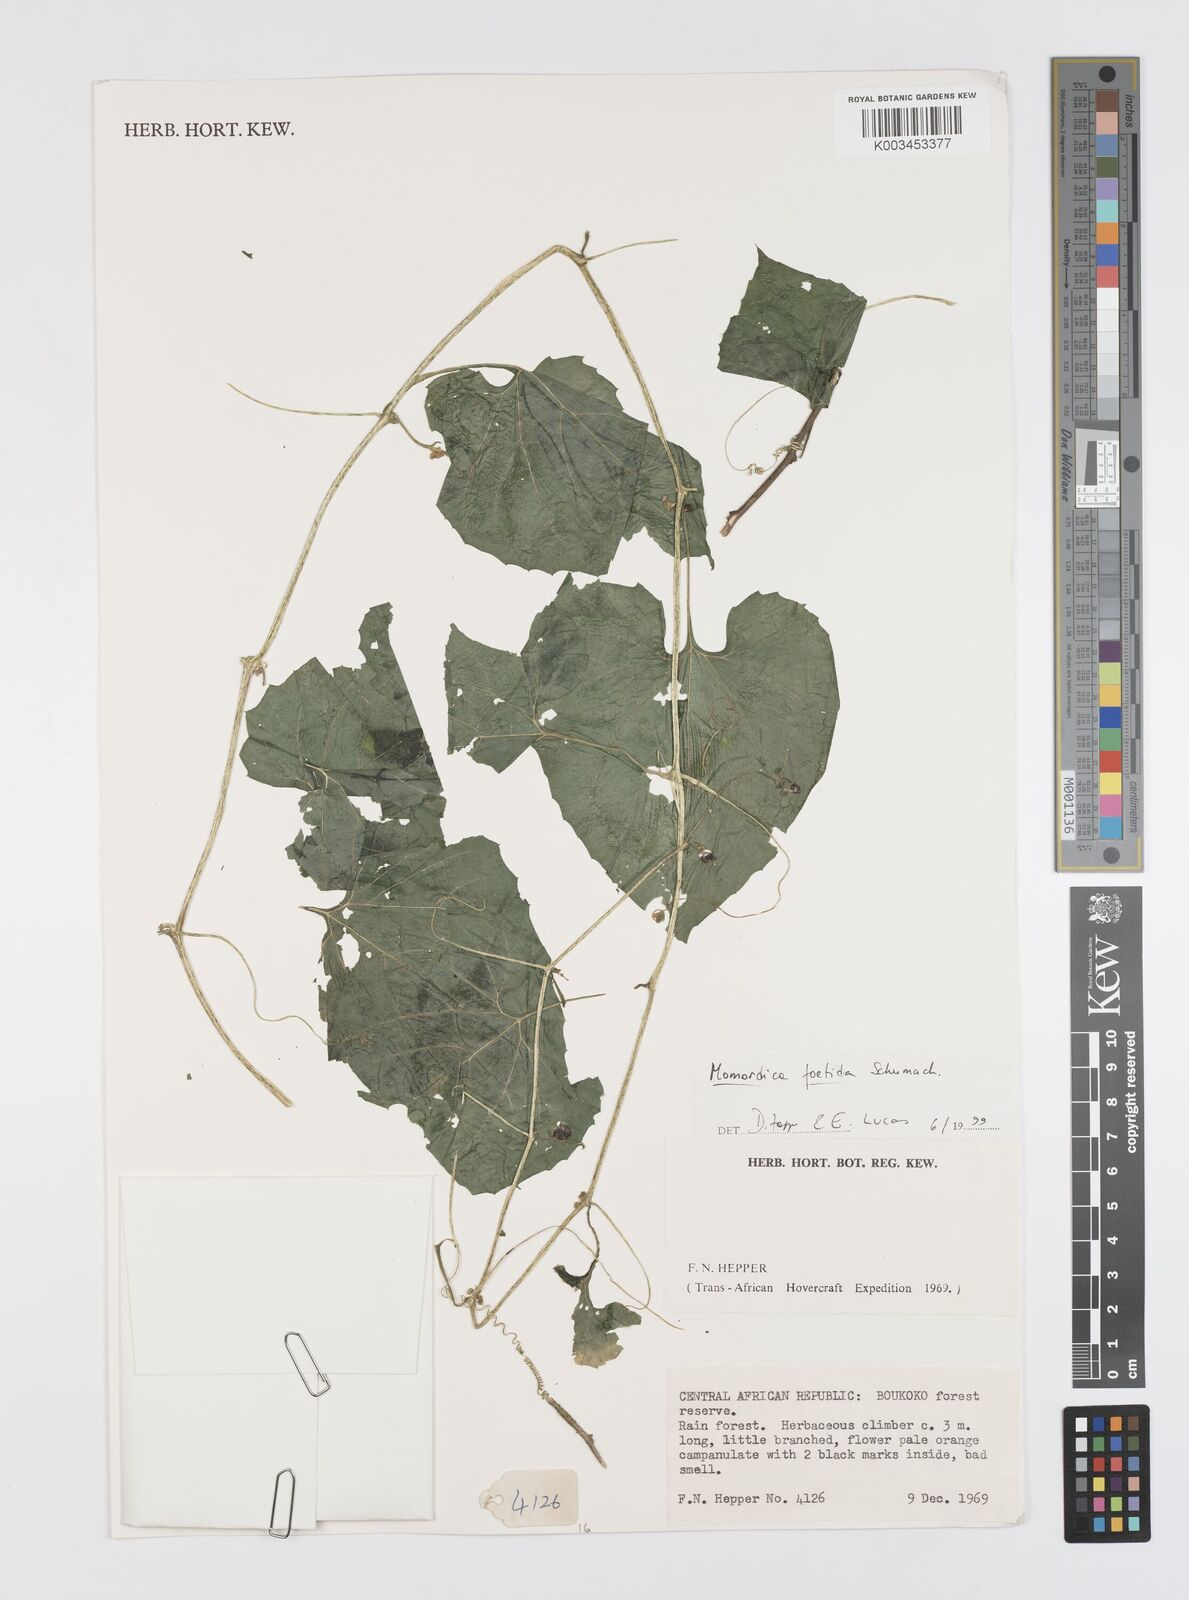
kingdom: Plantae
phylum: Tracheophyta
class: Magnoliopsida
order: Cucurbitales
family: Cucurbitaceae
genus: Momordica
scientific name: Momordica foetida
